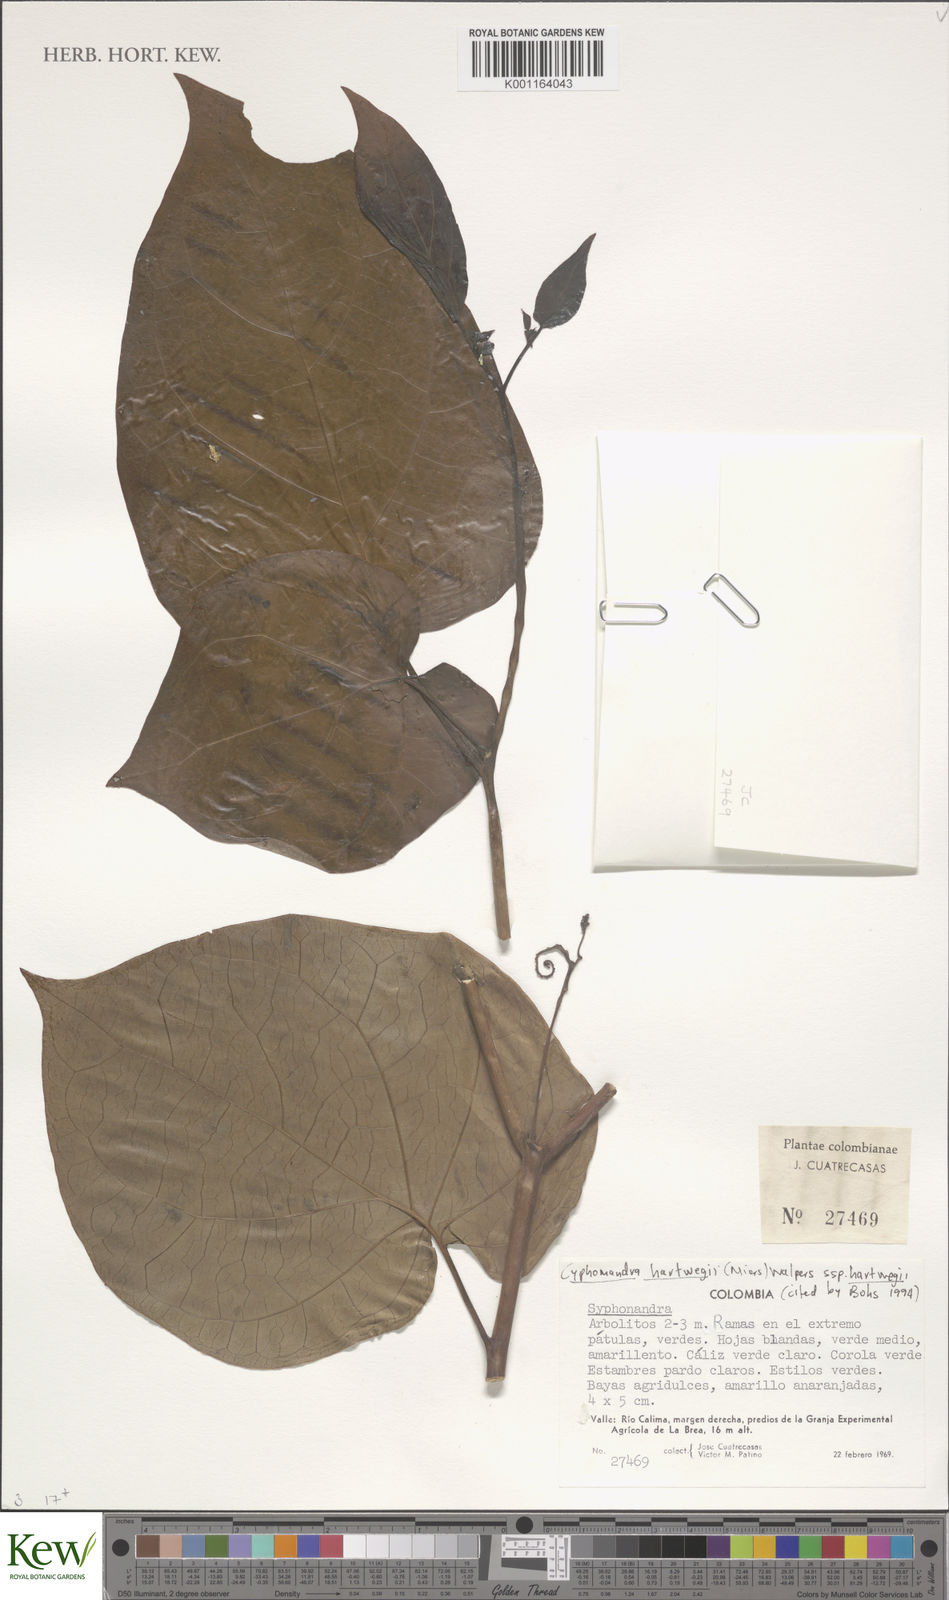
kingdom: Plantae
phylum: Tracheophyta
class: Magnoliopsida
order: Solanales
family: Solanaceae
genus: Solanum
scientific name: Solanum lanceolatum
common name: Orangeberry nightshade
